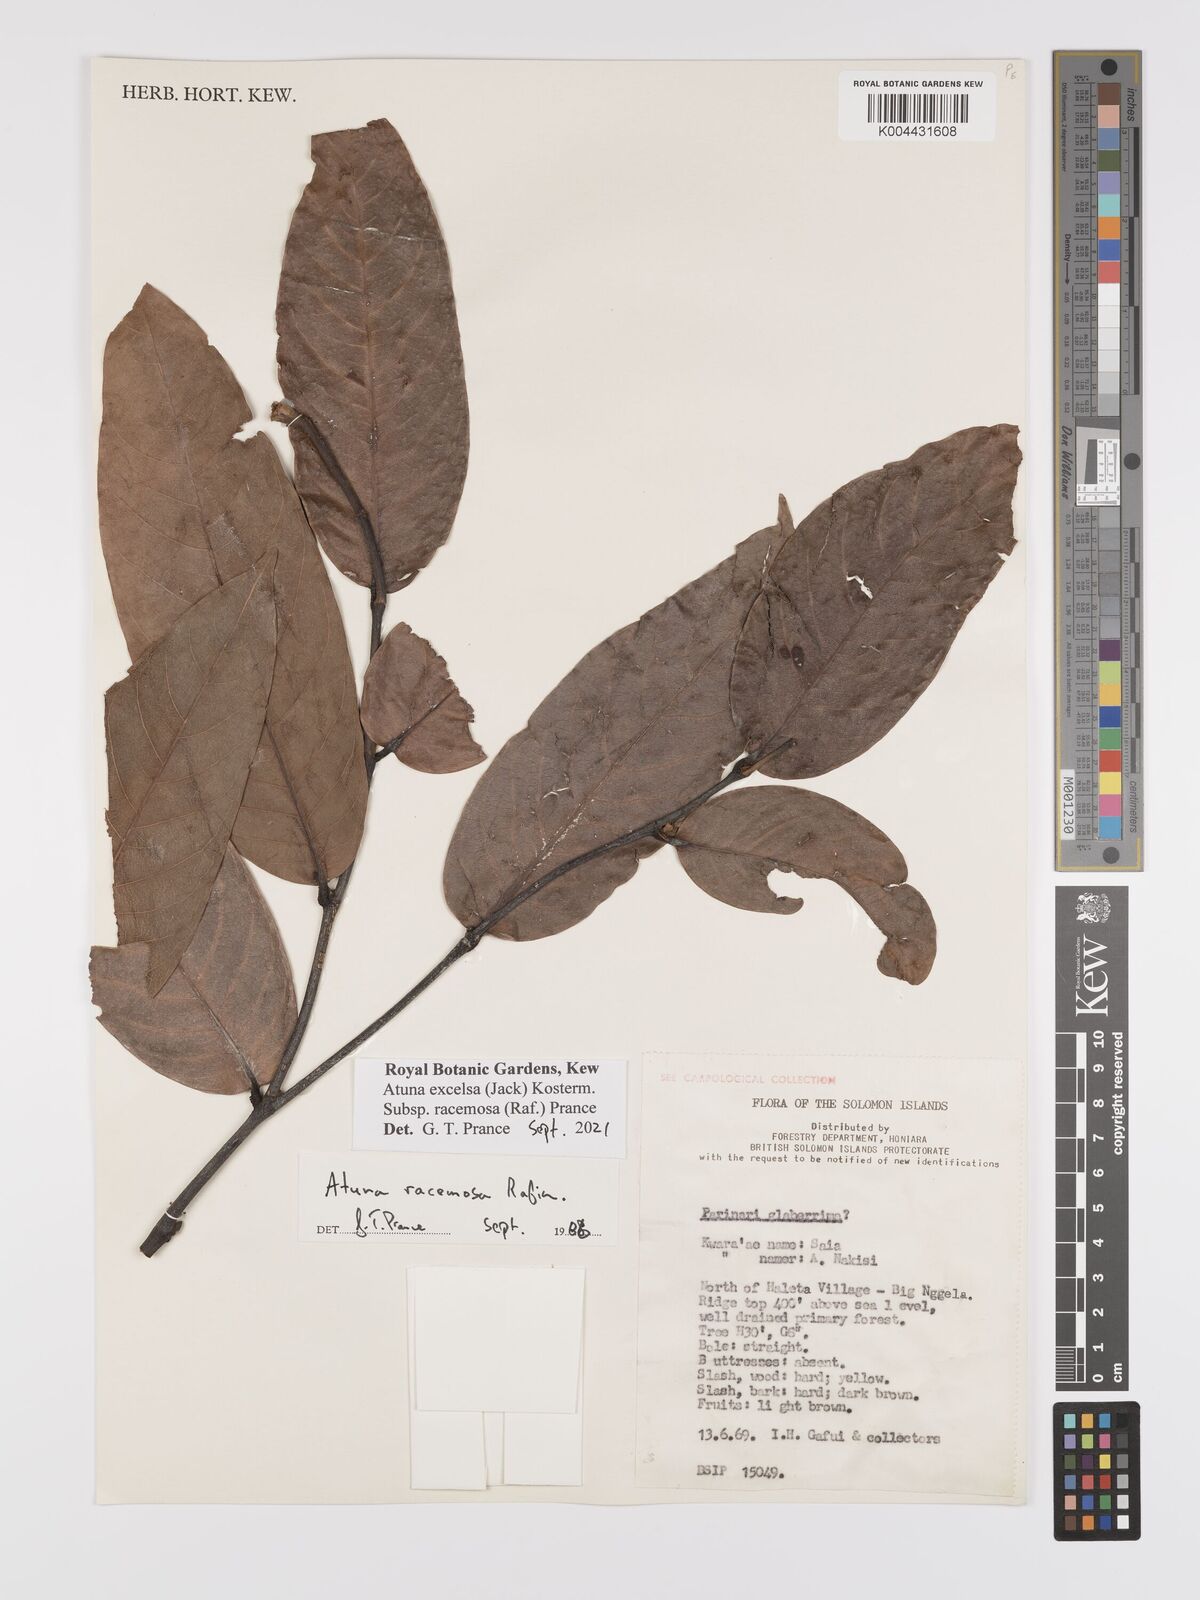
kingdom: Plantae
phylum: Tracheophyta
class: Magnoliopsida
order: Malpighiales
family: Chrysobalanaceae
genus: Atuna
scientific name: Atuna
